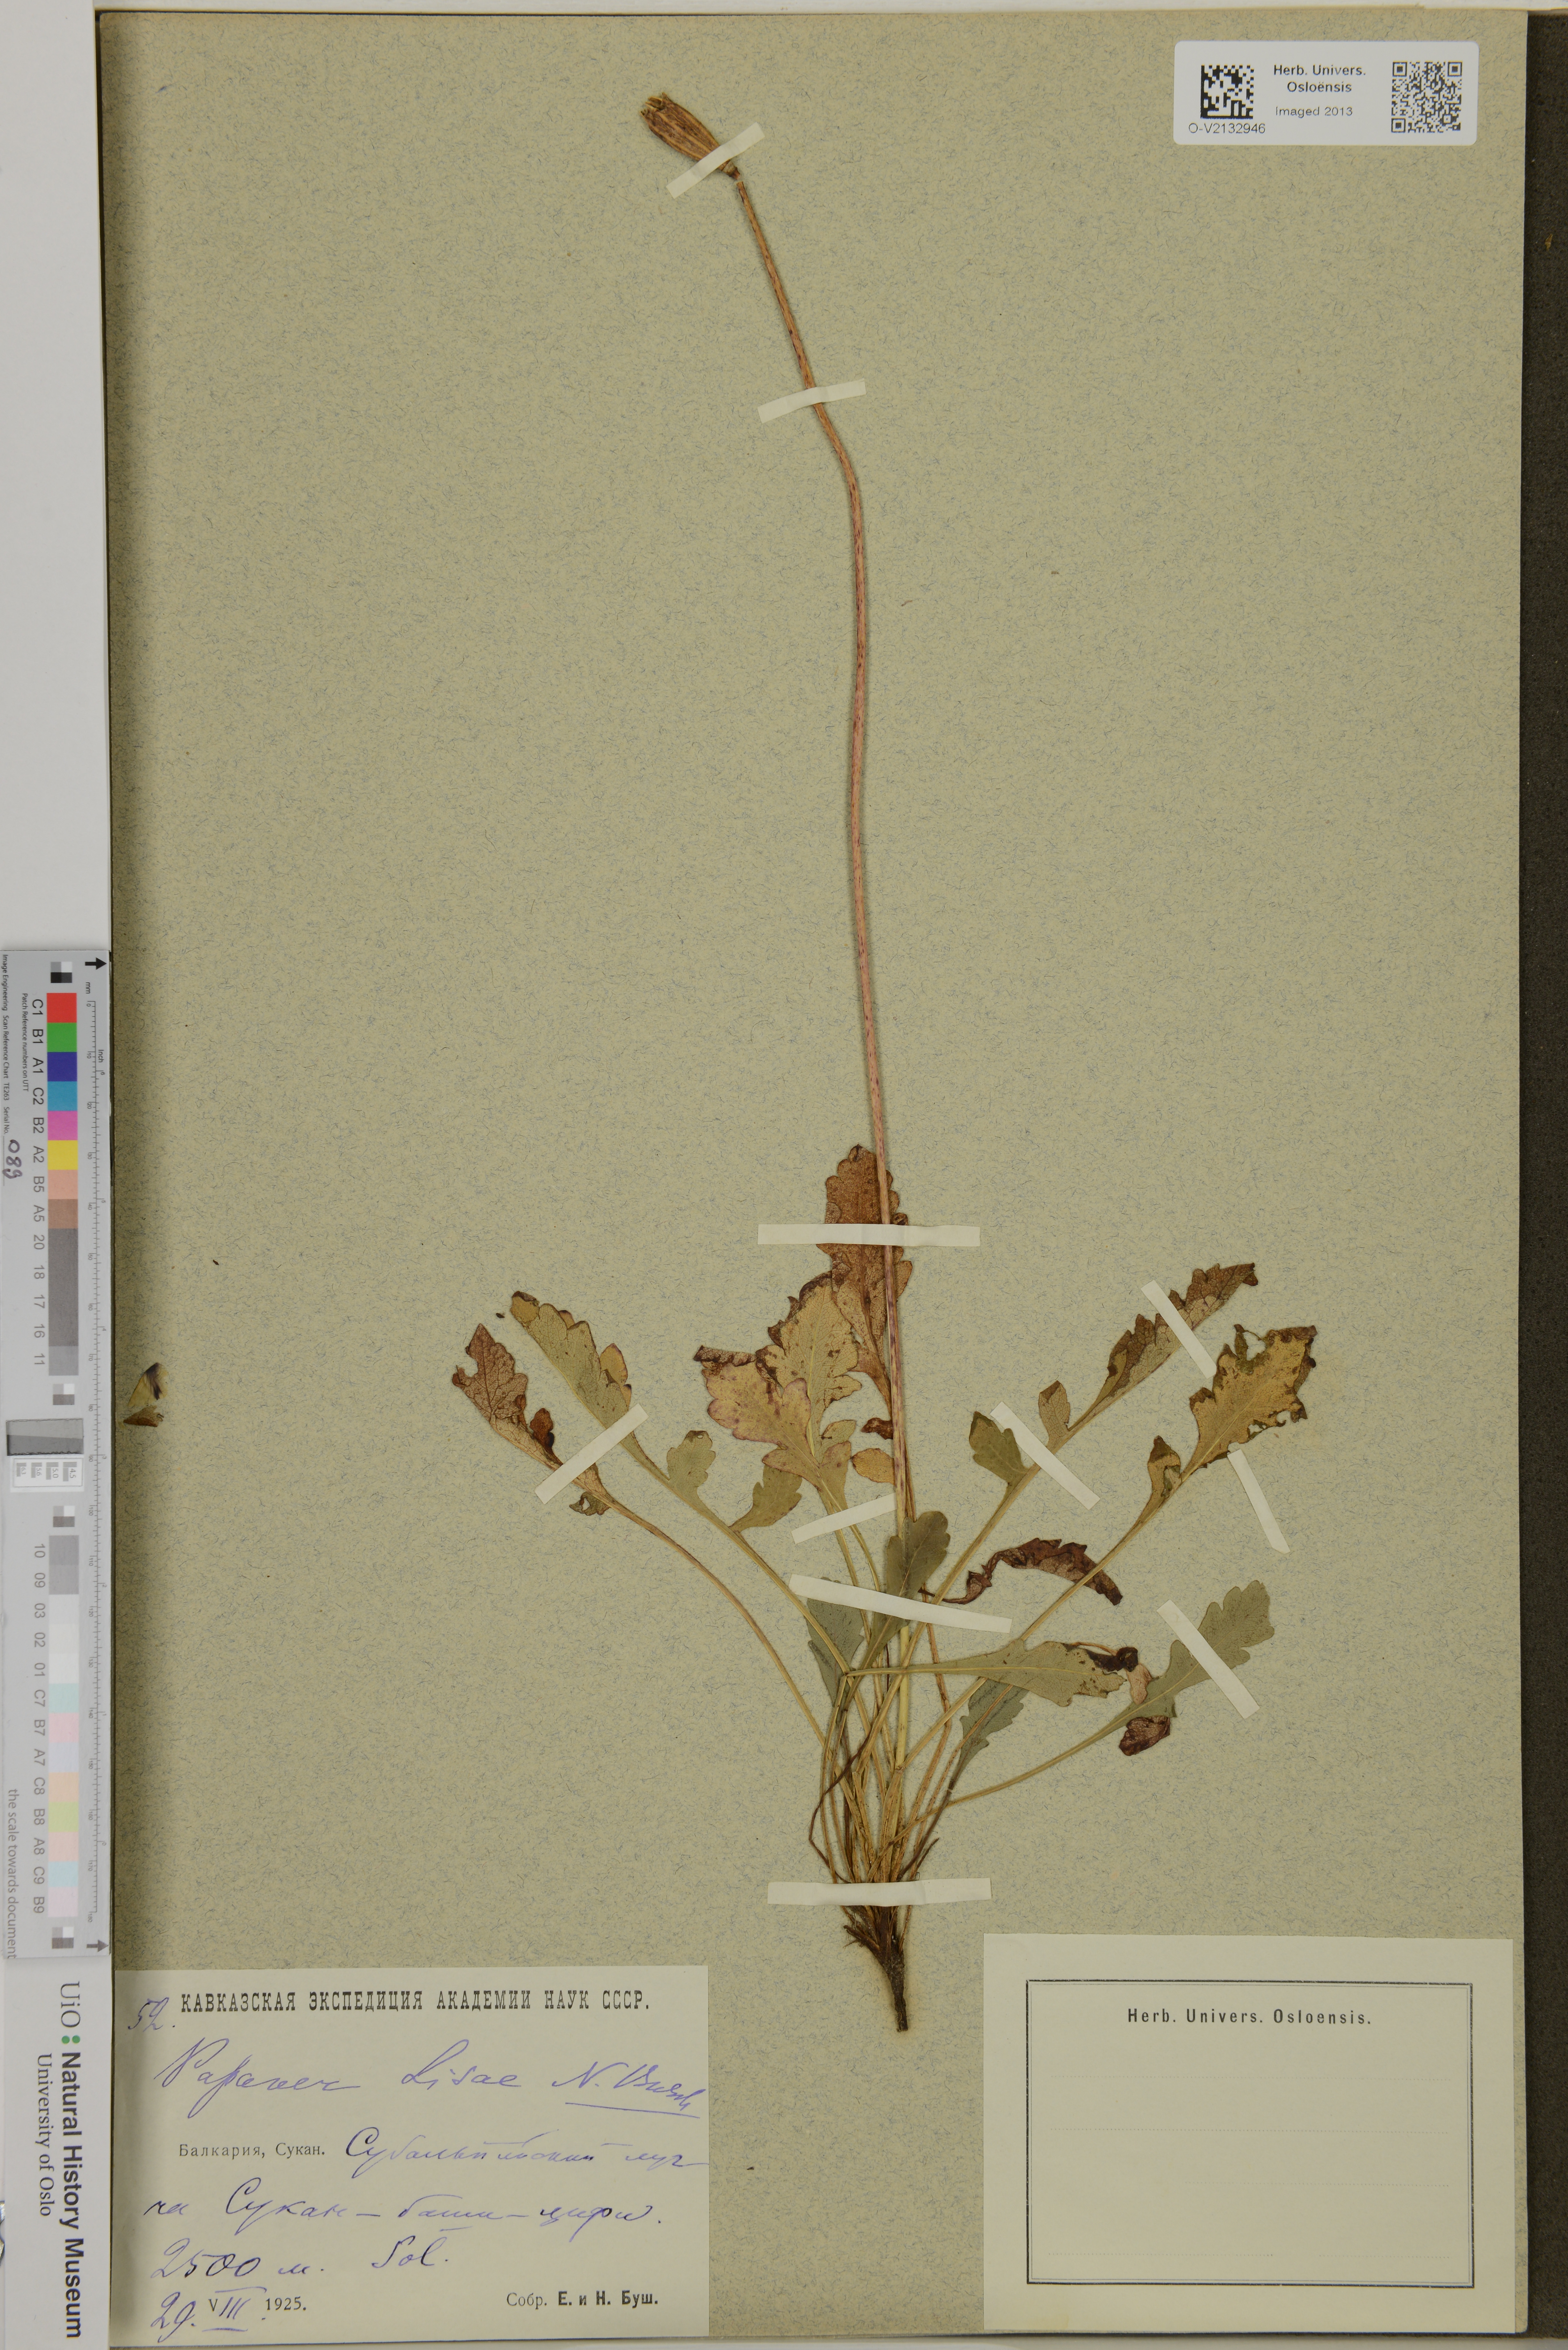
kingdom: Plantae
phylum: Tracheophyta
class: Magnoliopsida
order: Ranunculales
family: Papaveraceae
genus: Papaver
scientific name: Papaver lisae
